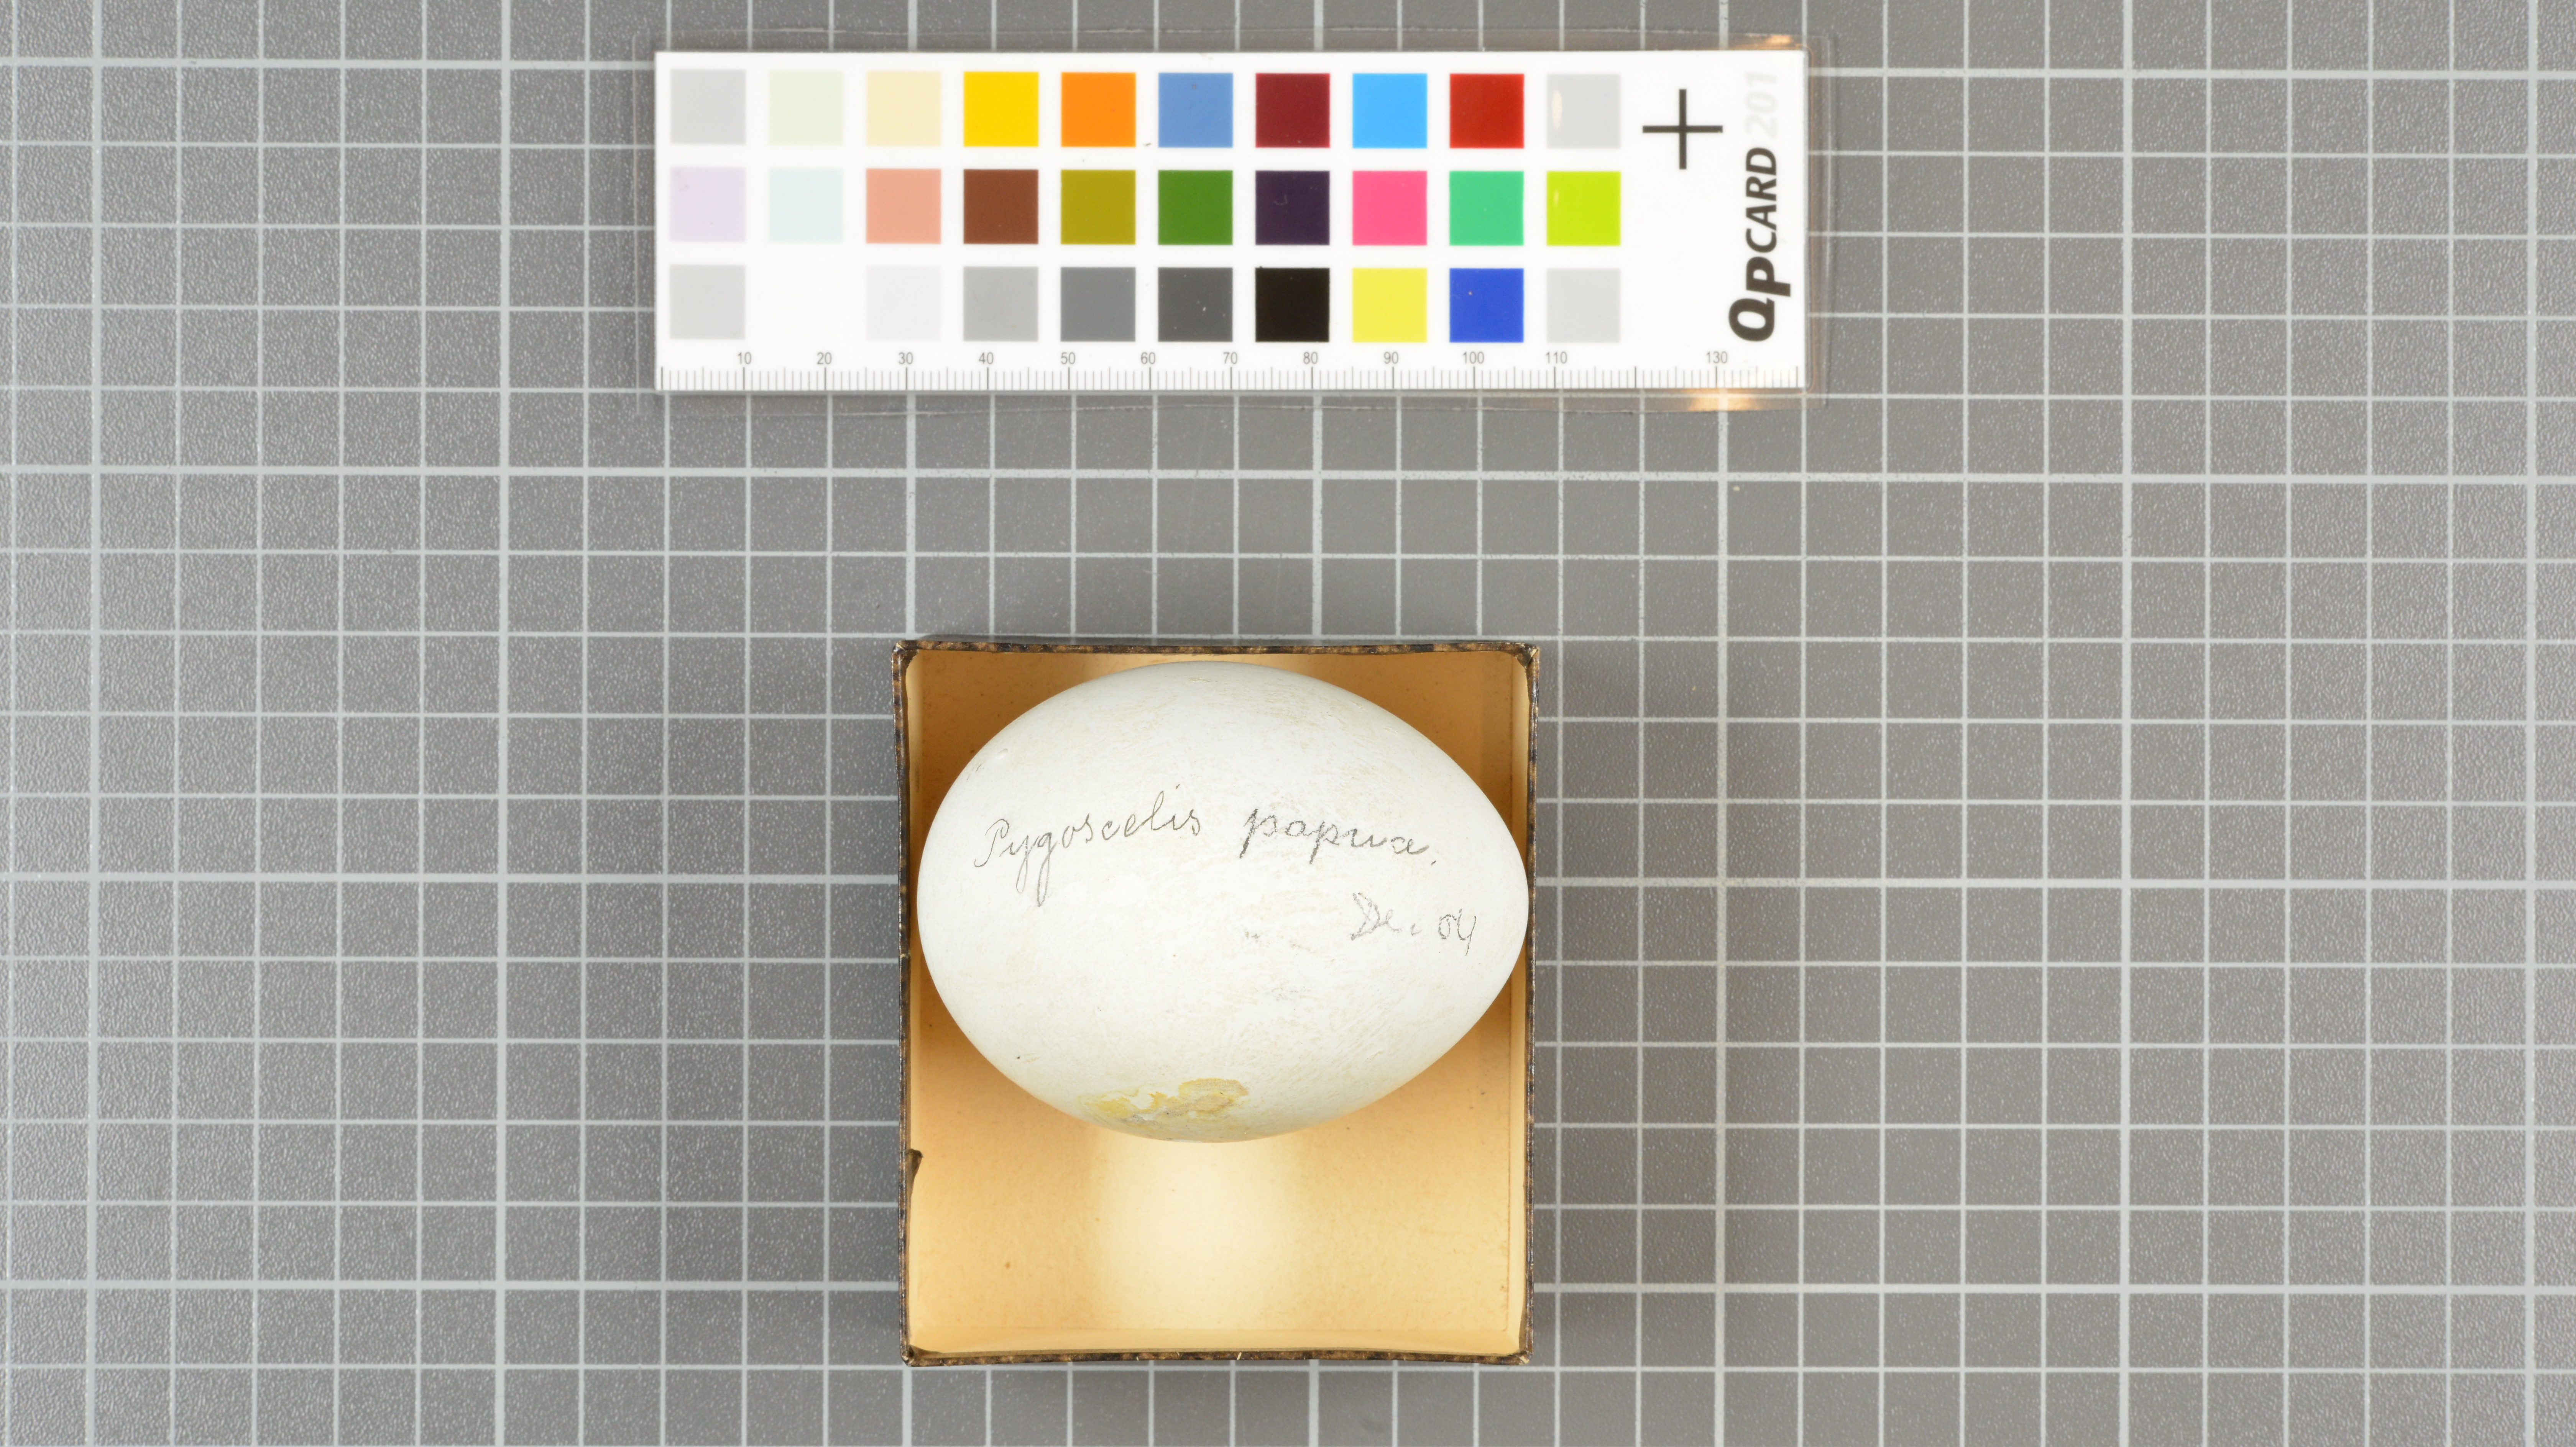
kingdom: Animalia
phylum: Chordata
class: Aves
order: Sphenisciformes
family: Spheniscidae
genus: Pygoscelis
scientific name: Pygoscelis papua
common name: Gentoo penguin
